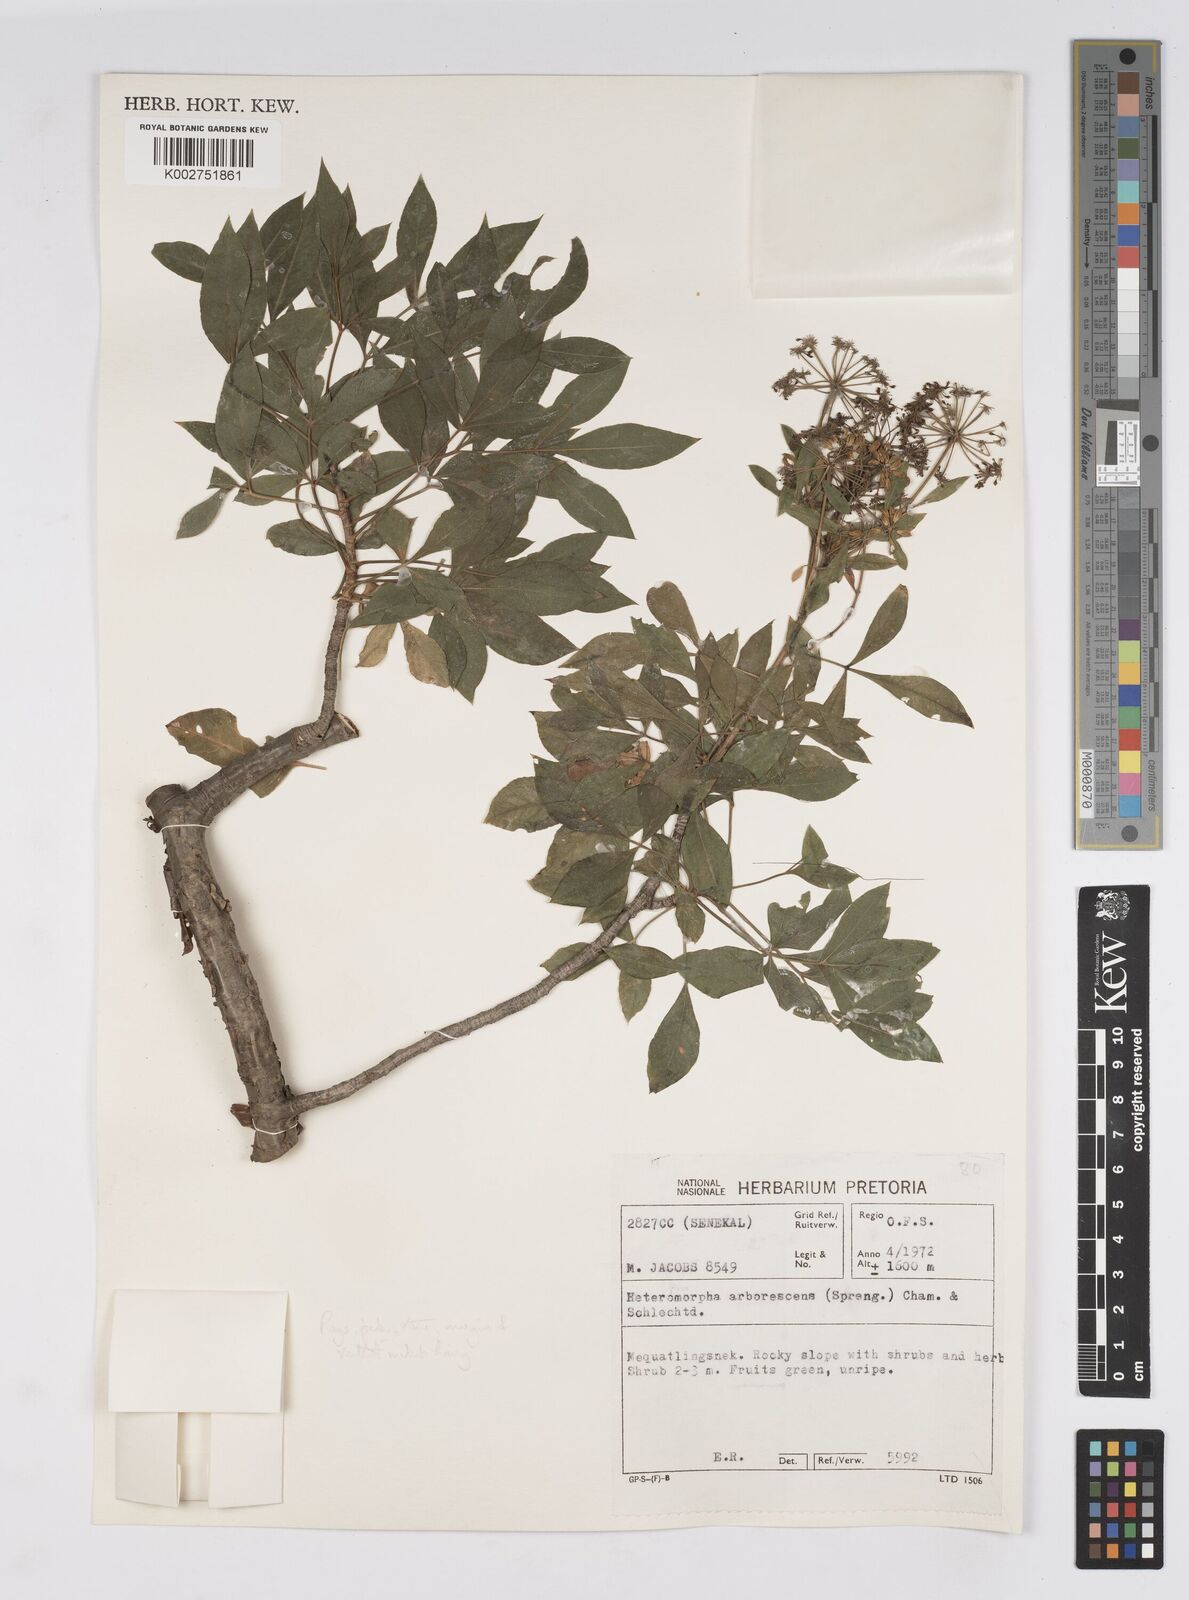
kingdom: Plantae
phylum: Tracheophyta
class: Magnoliopsida
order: Apiales
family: Apiaceae
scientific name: Apiaceae
